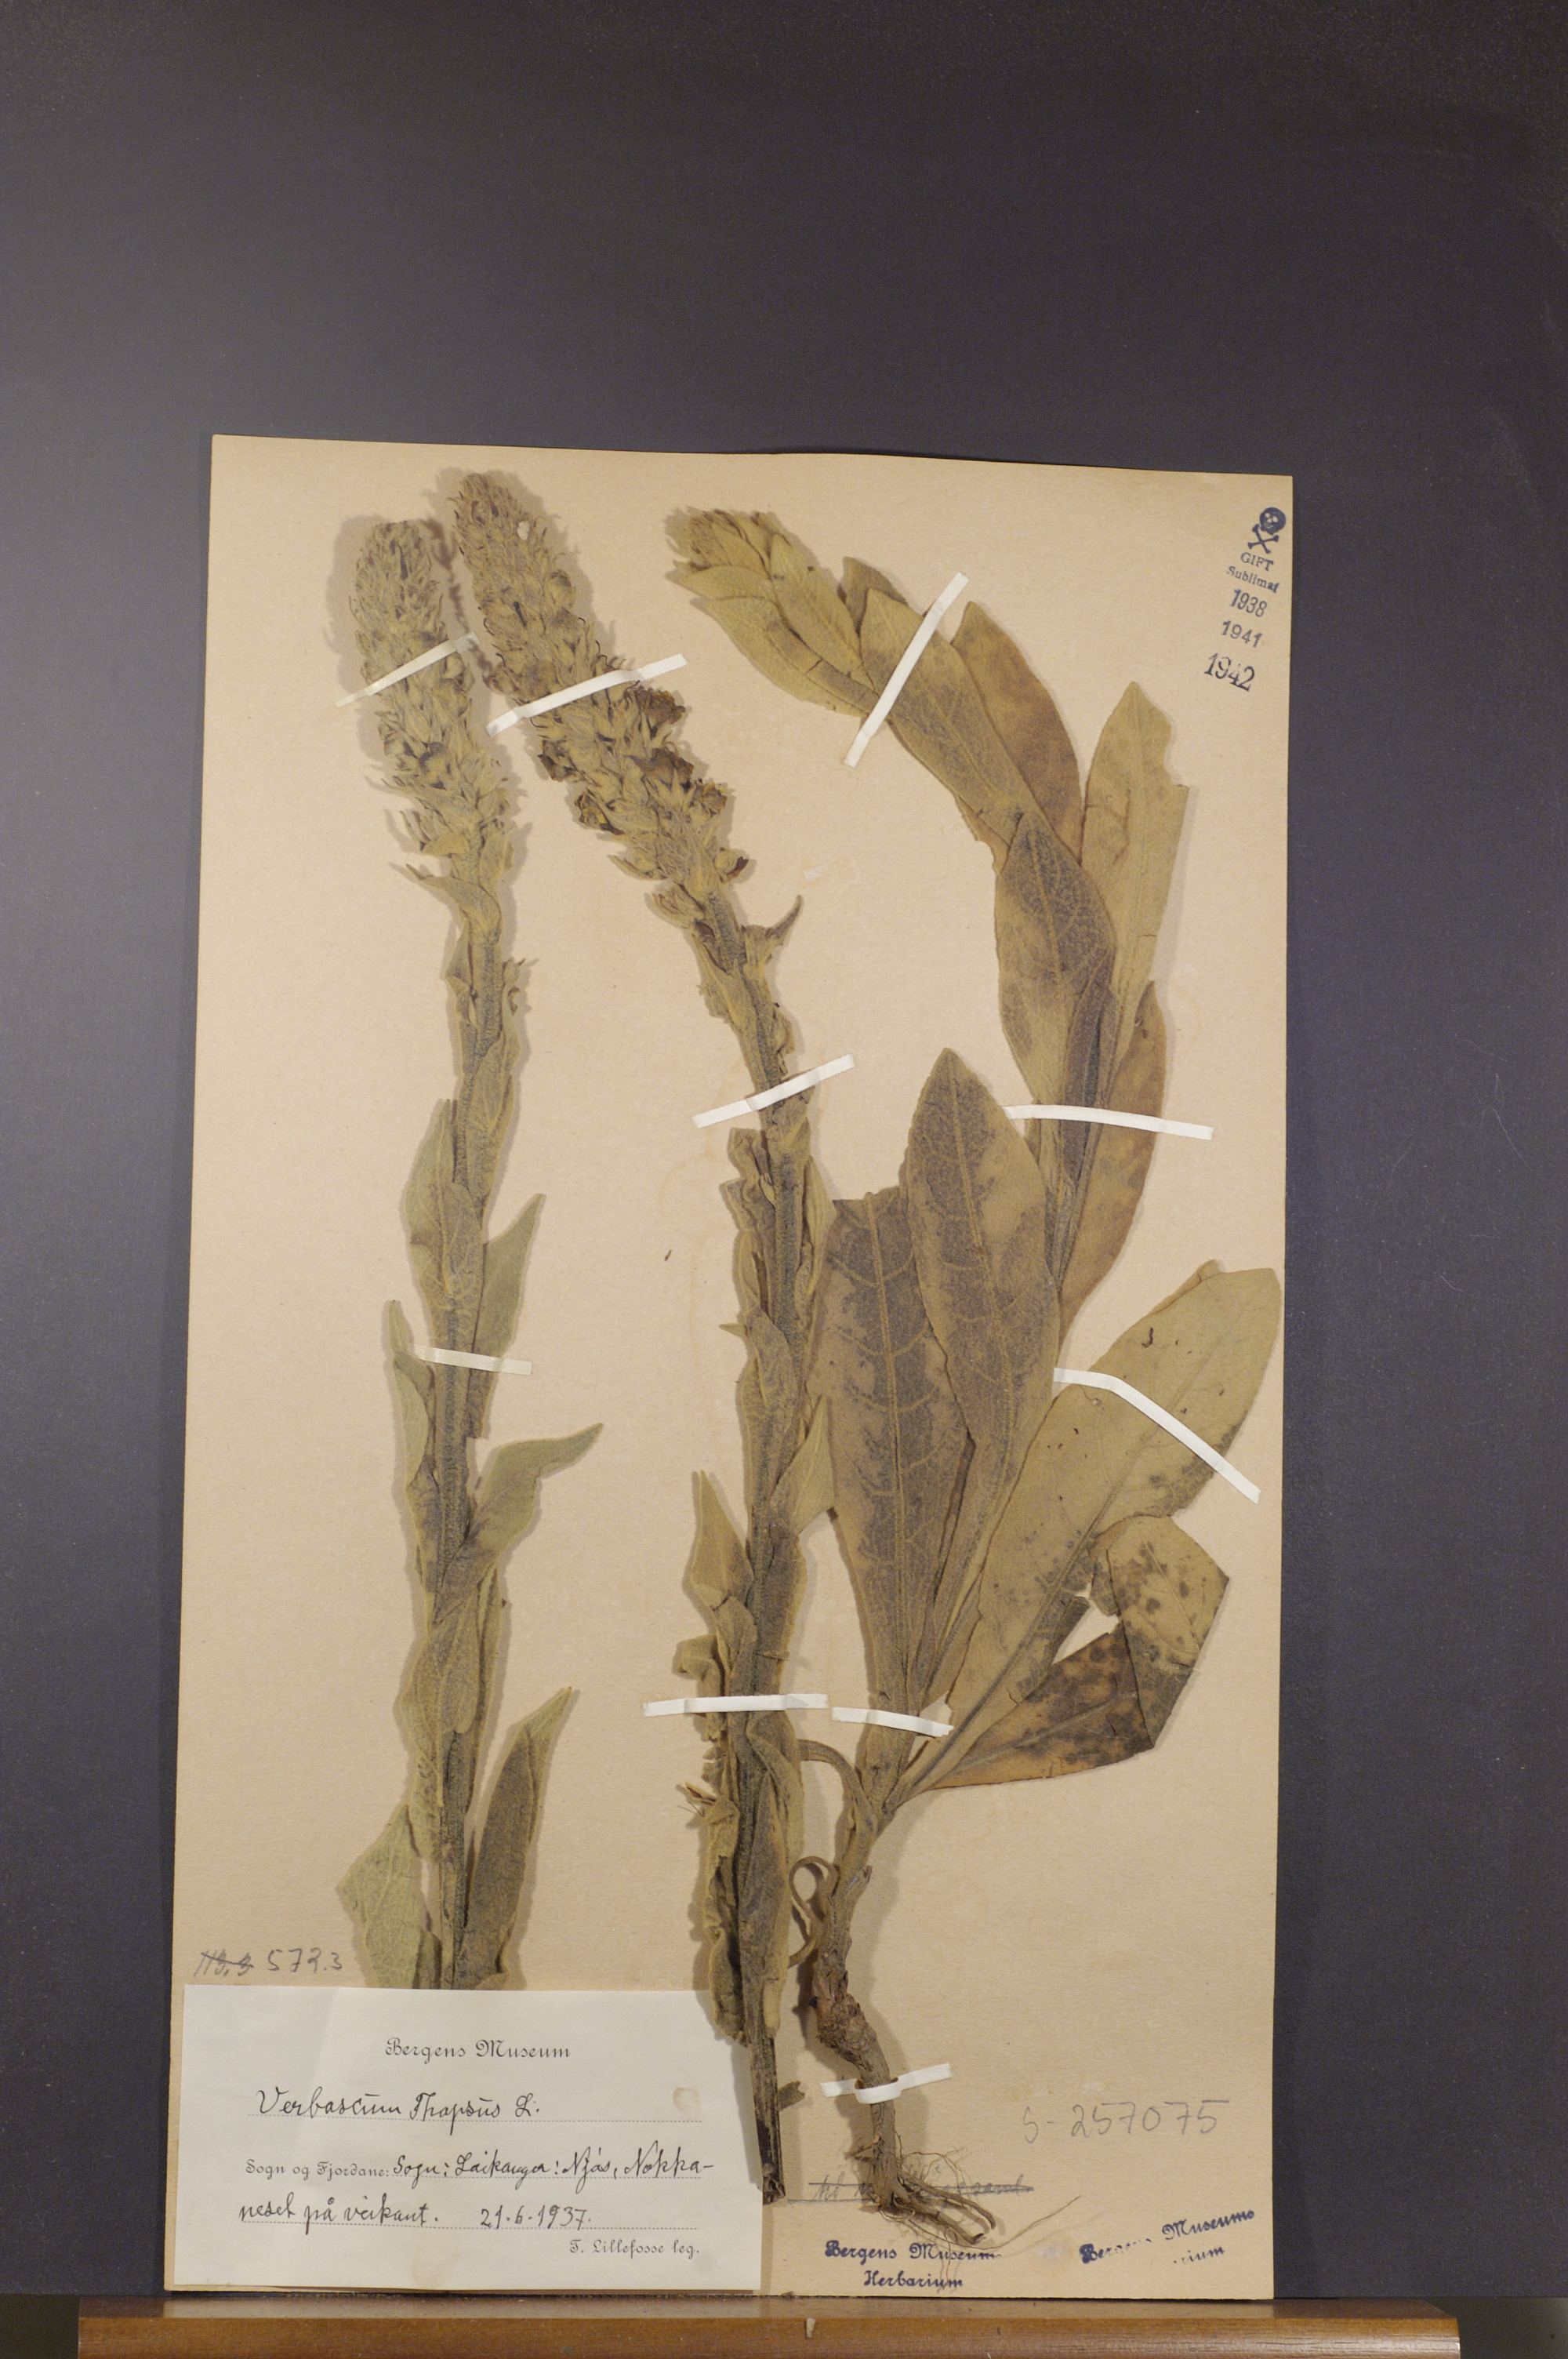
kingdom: Plantae
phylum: Tracheophyta
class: Magnoliopsida
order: Lamiales
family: Scrophulariaceae
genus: Verbascum
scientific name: Verbascum thapsus
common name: Common mullein
